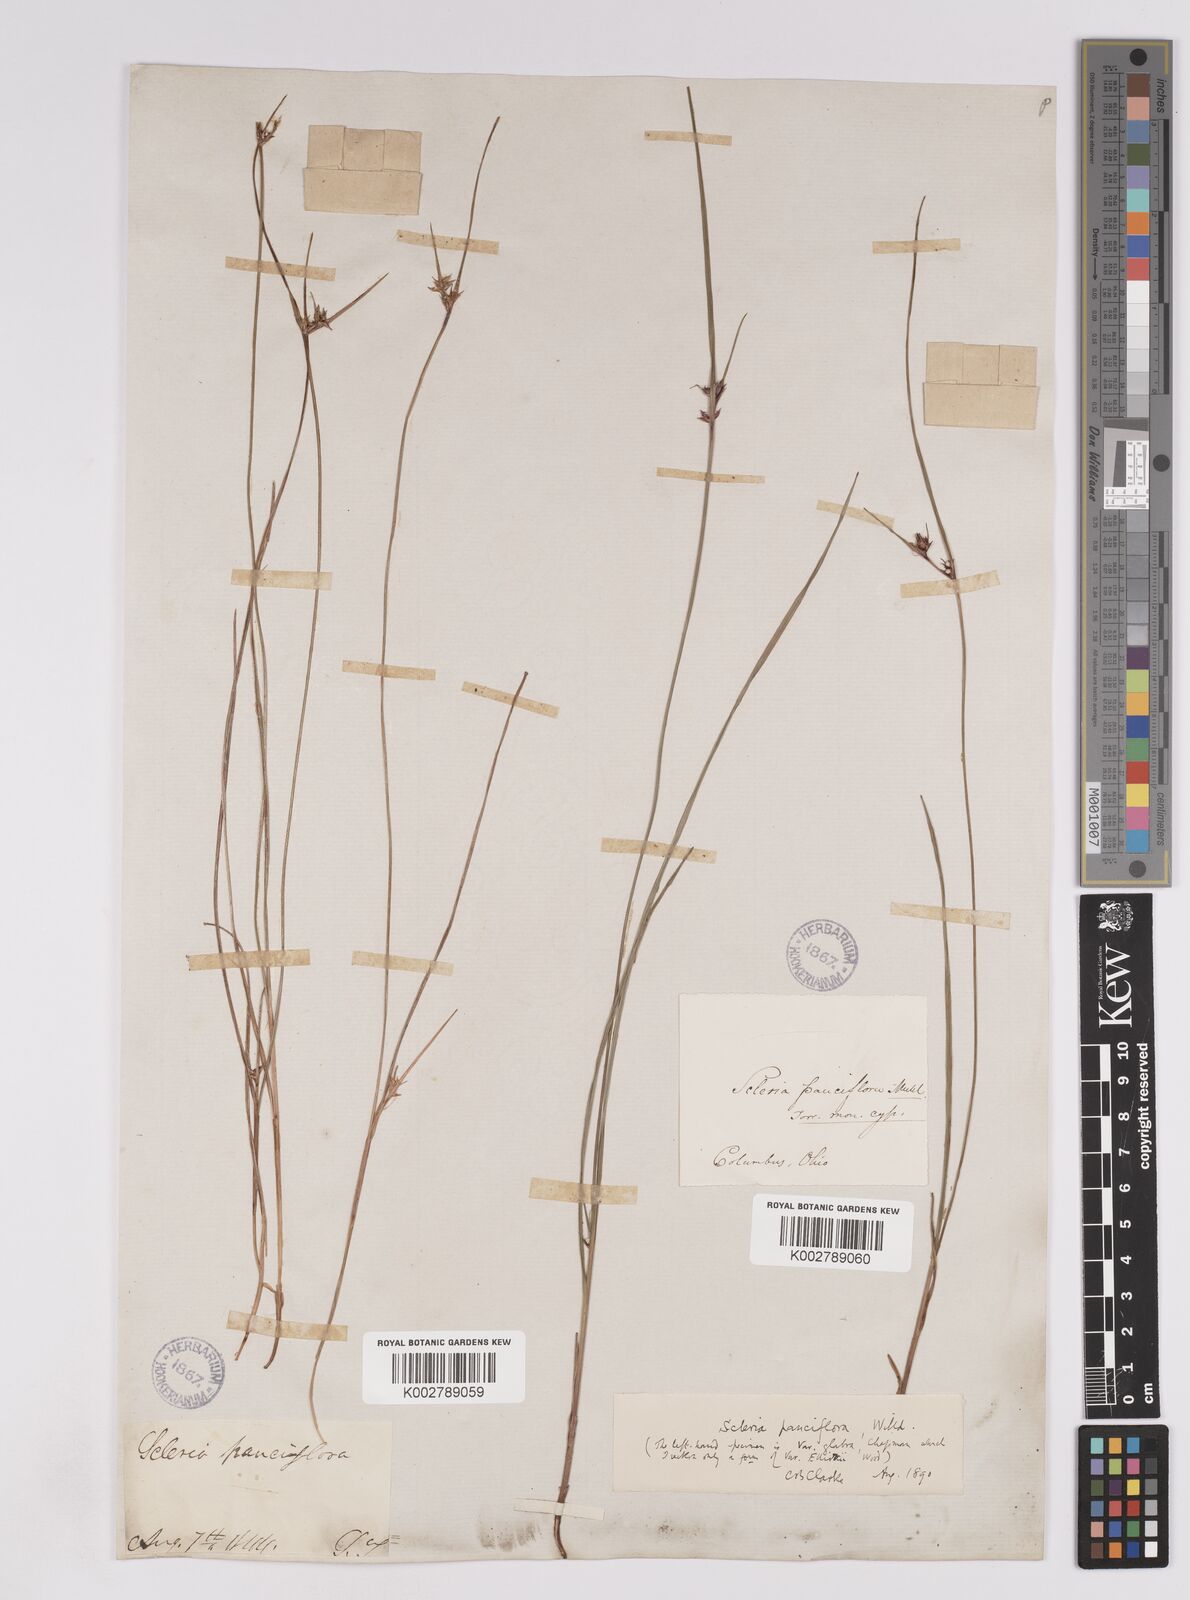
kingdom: Plantae
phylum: Tracheophyta
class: Liliopsida
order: Poales
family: Cyperaceae
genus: Scleria
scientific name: Scleria ciliata
